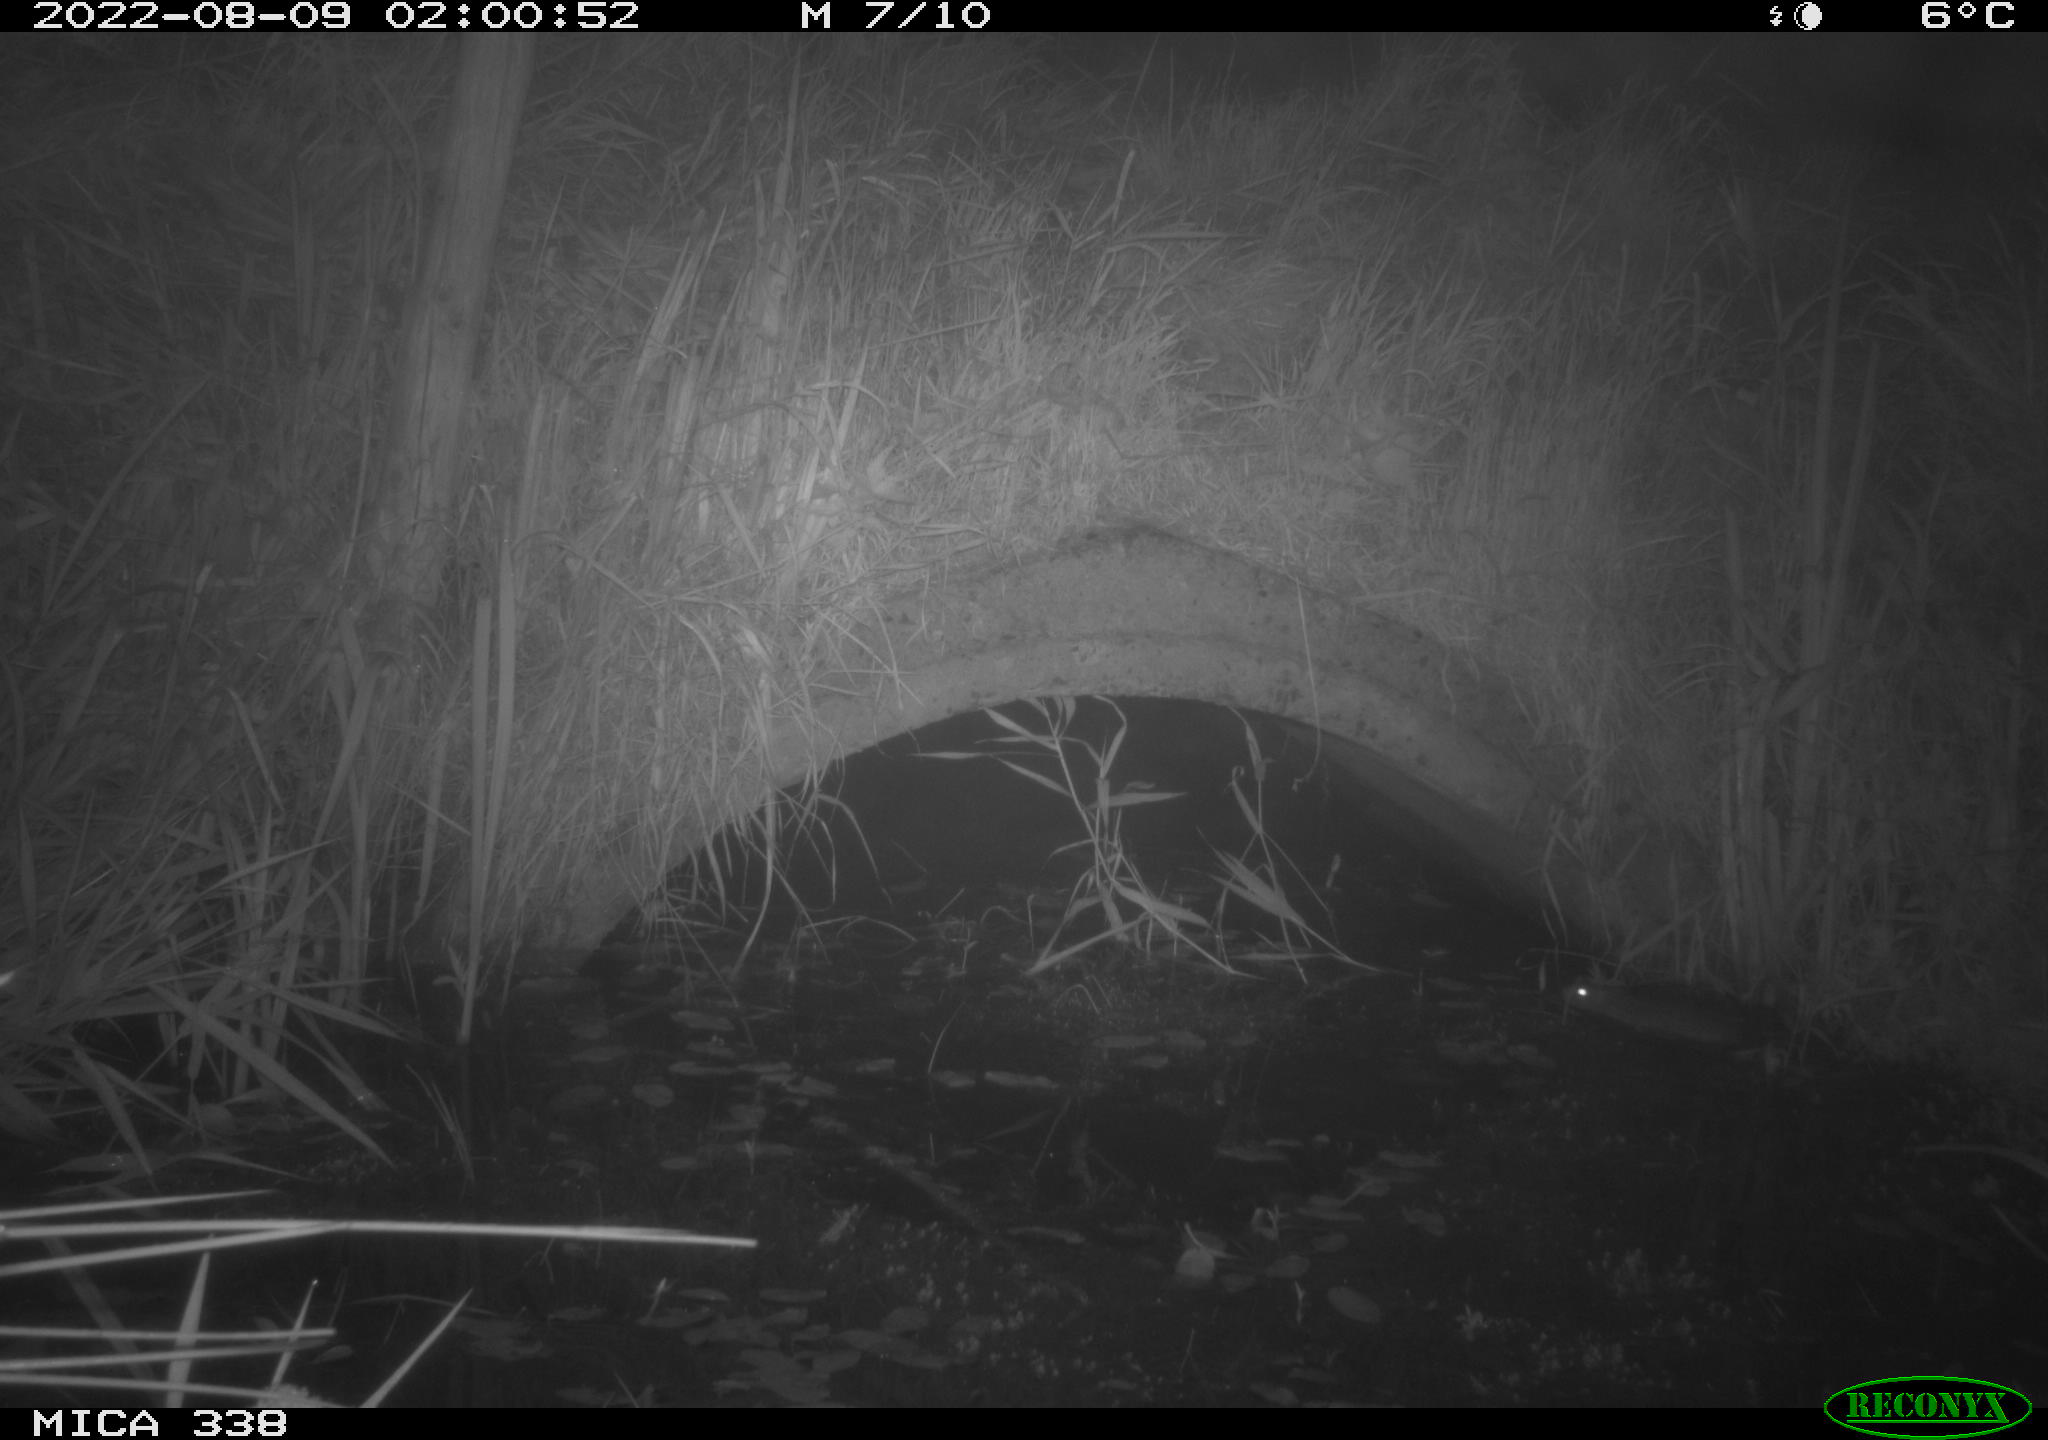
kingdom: Animalia
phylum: Chordata
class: Mammalia
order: Rodentia
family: Muridae
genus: Rattus
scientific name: Rattus norvegicus
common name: Brown rat
